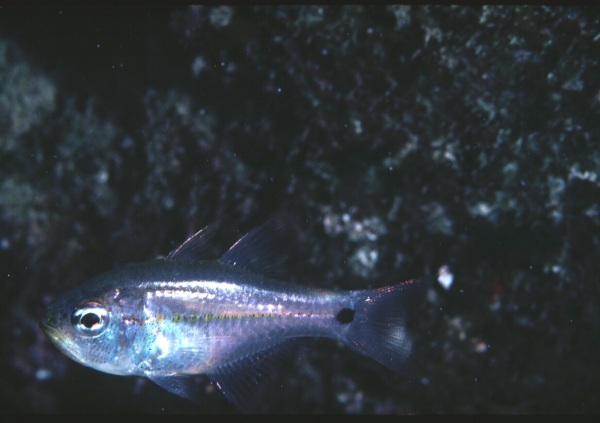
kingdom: Animalia
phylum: Chordata
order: Perciformes
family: Apogonidae
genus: Taeniamia
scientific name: Taeniamia mozambiquensis
